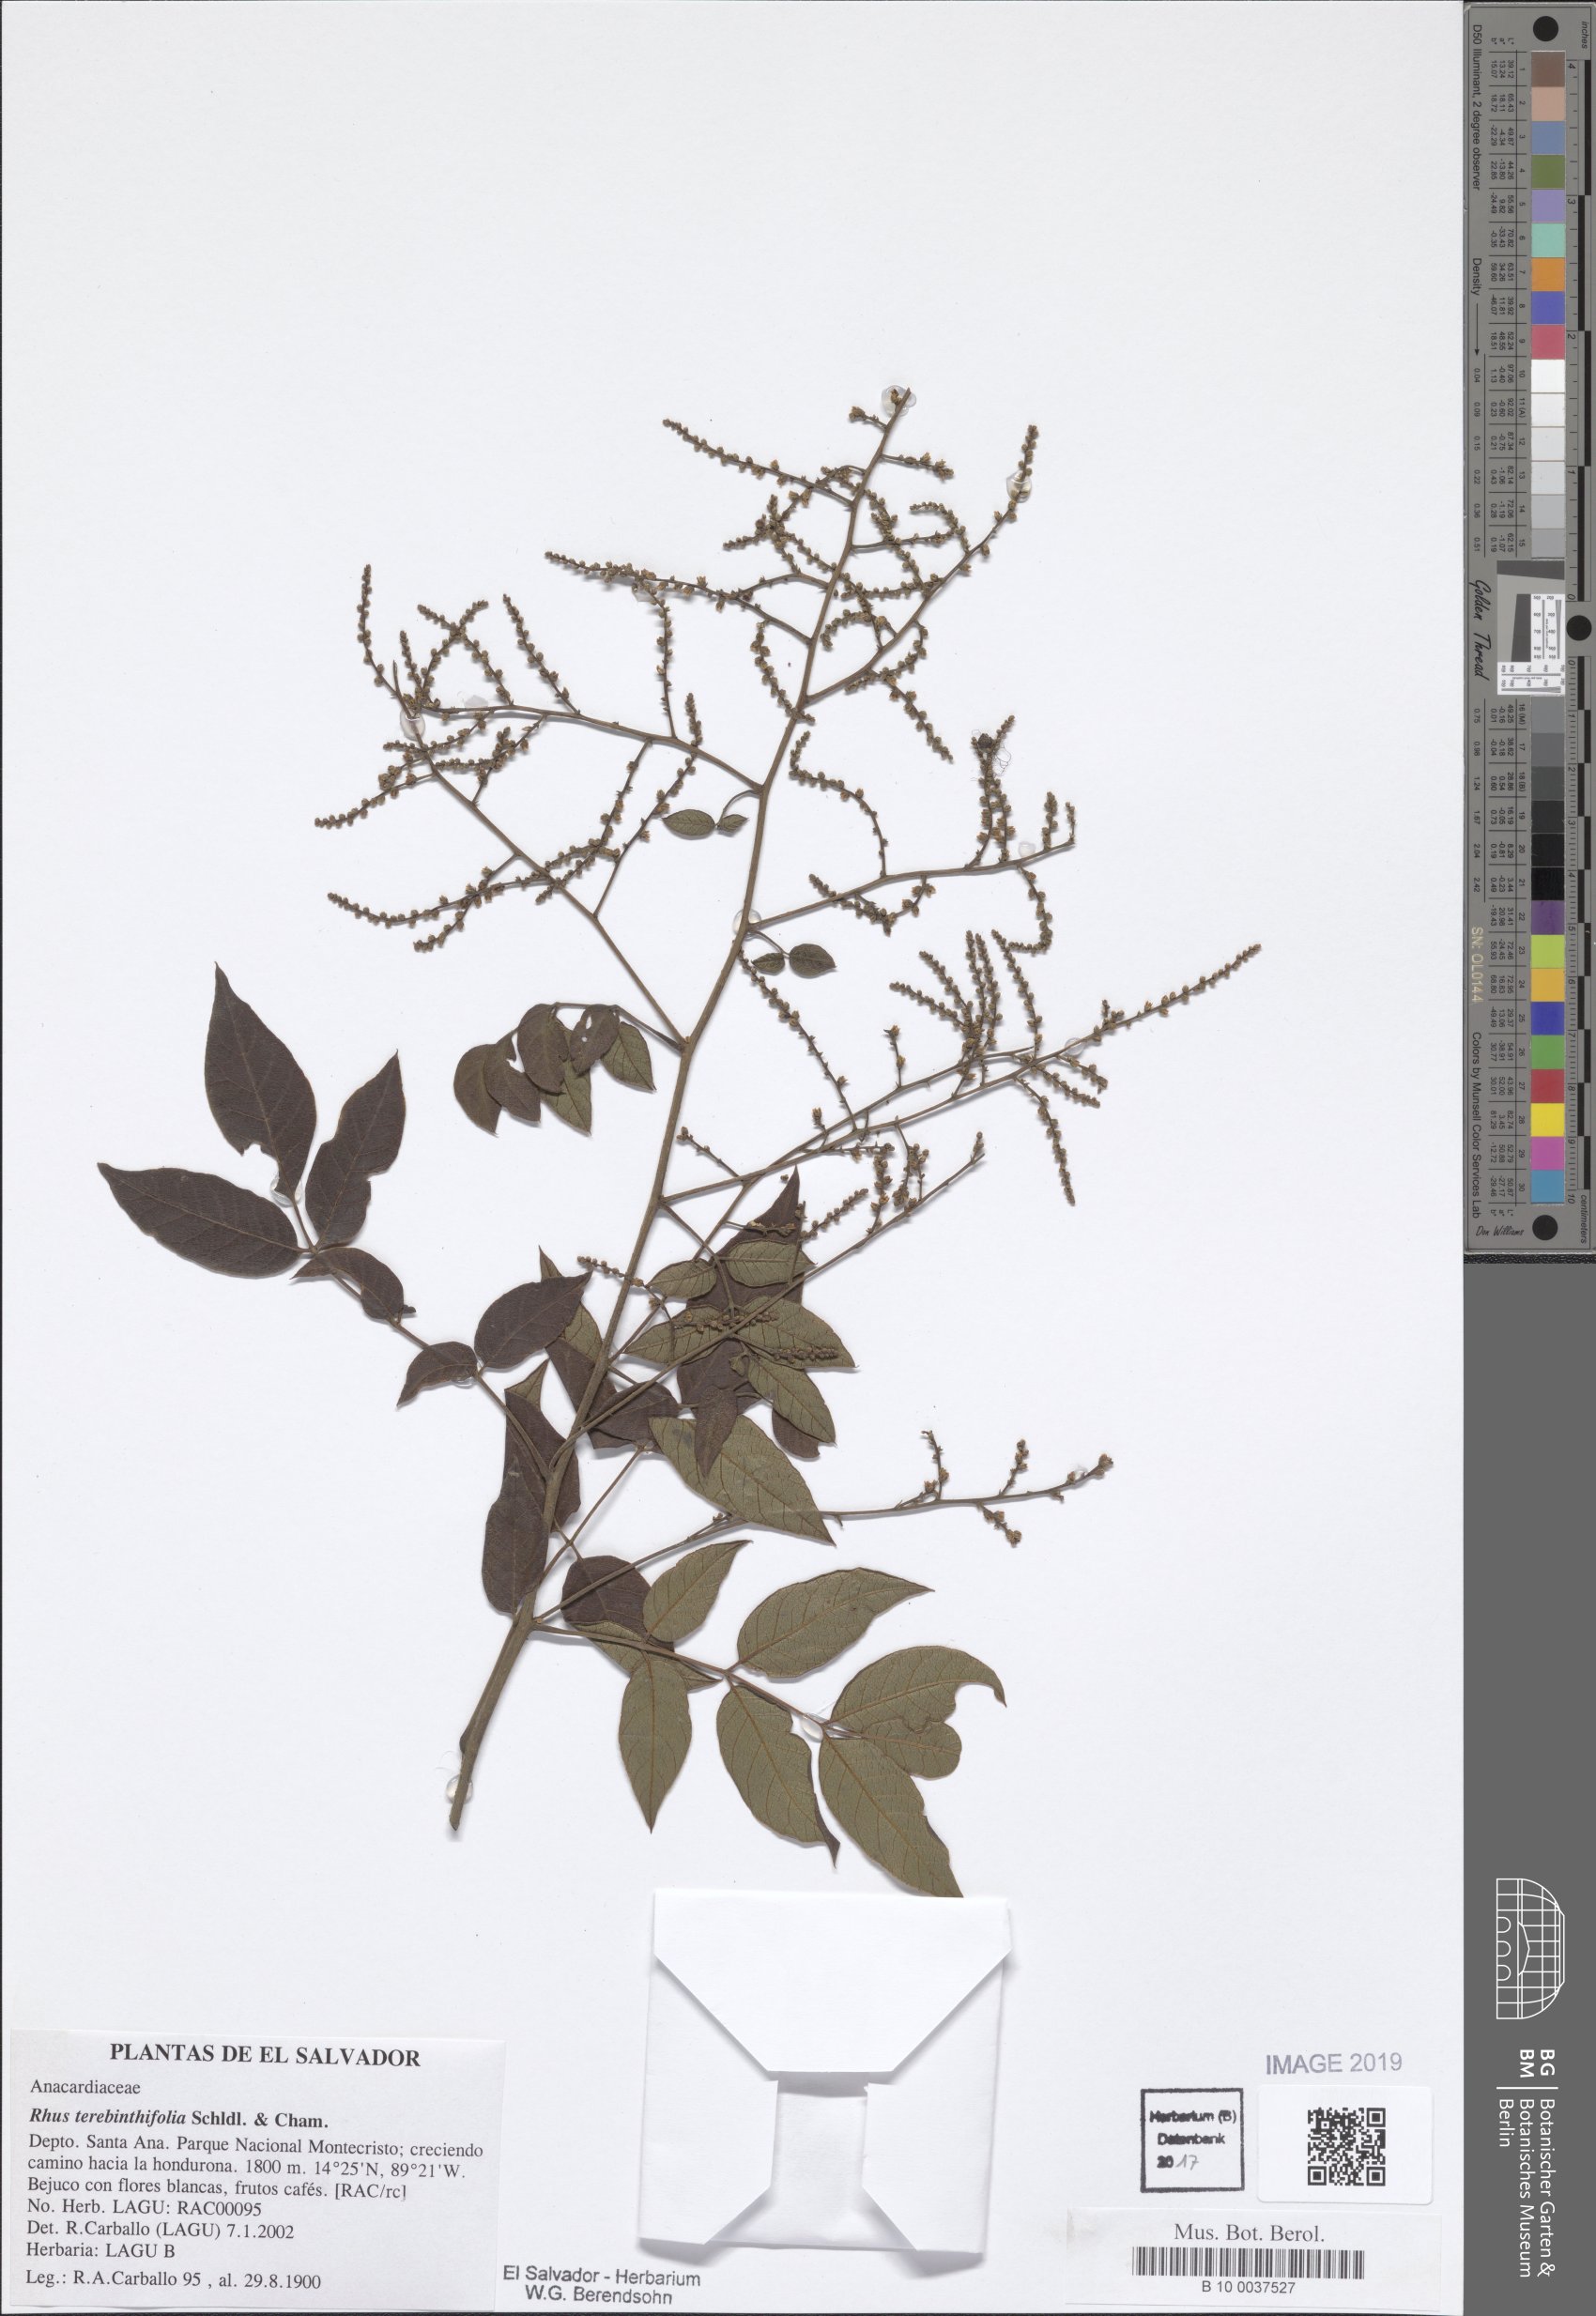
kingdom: Plantae
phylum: Tracheophyta
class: Magnoliopsida
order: Sapindales
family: Anacardiaceae
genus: Rhus
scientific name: Rhus terebinthifolia
